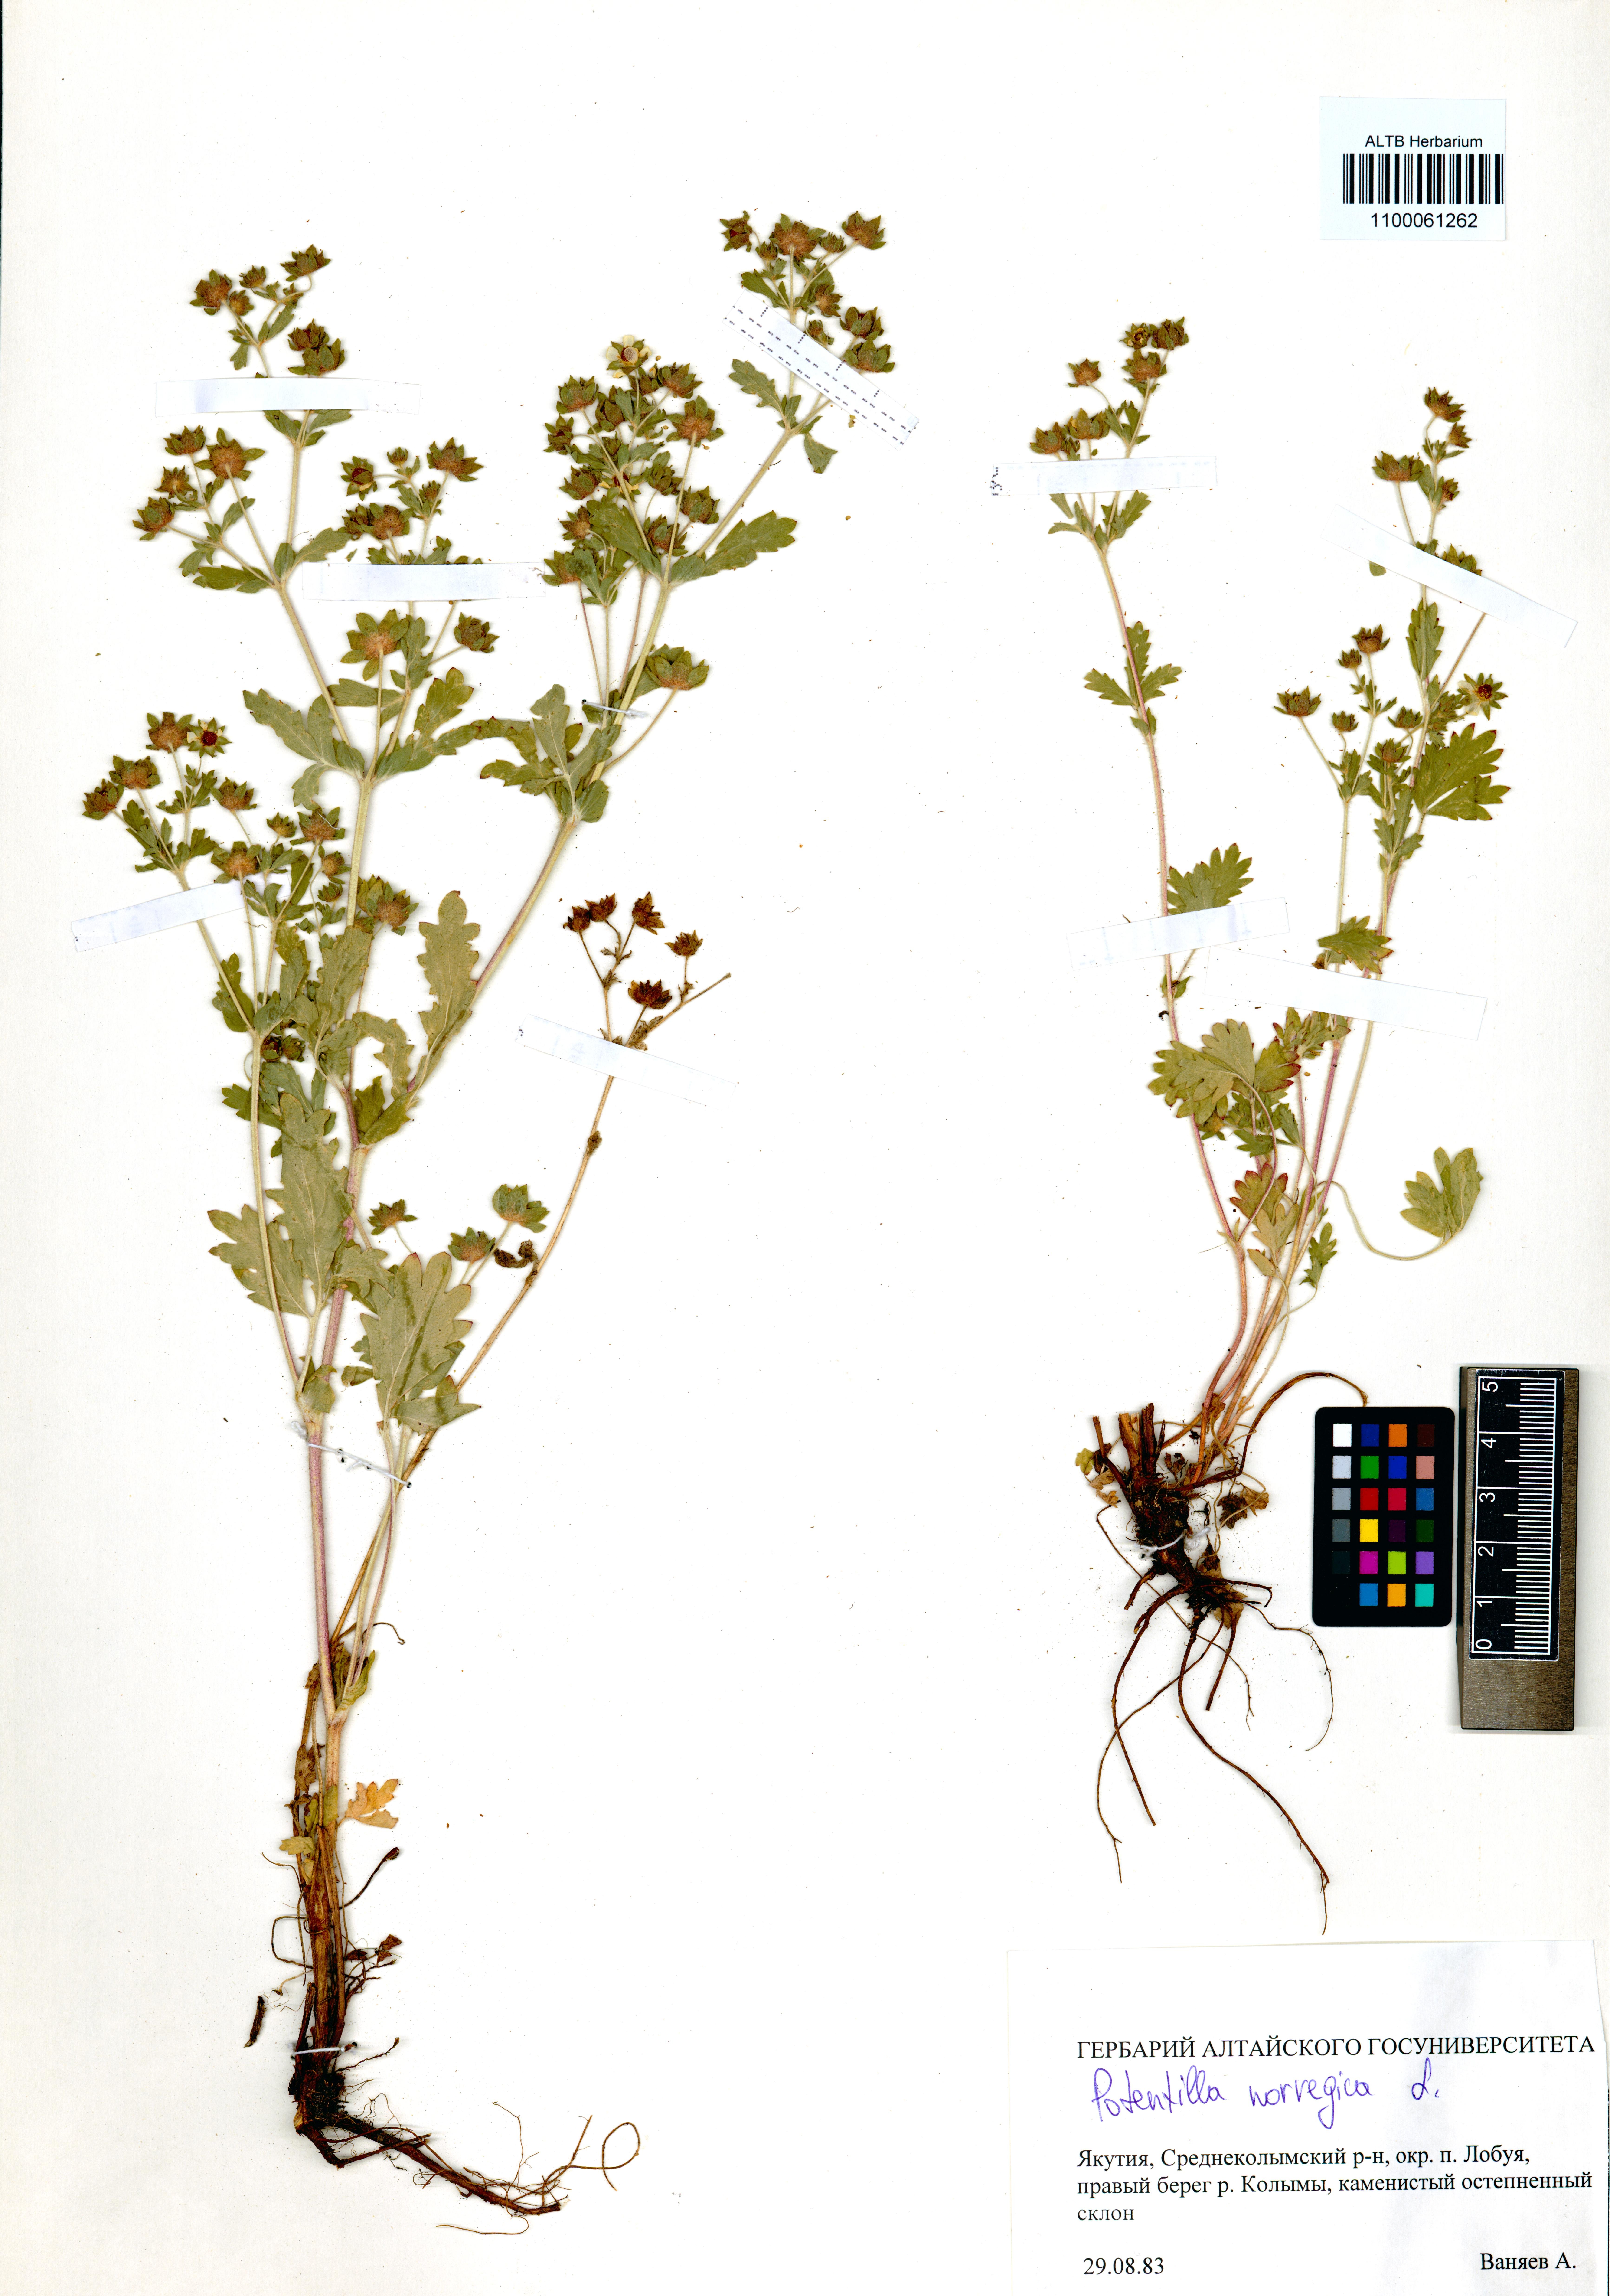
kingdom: Plantae
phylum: Tracheophyta
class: Magnoliopsida
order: Rosales
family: Rosaceae
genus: Potentilla
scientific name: Potentilla norvegica
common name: Ternate-leaved cinquefoil
